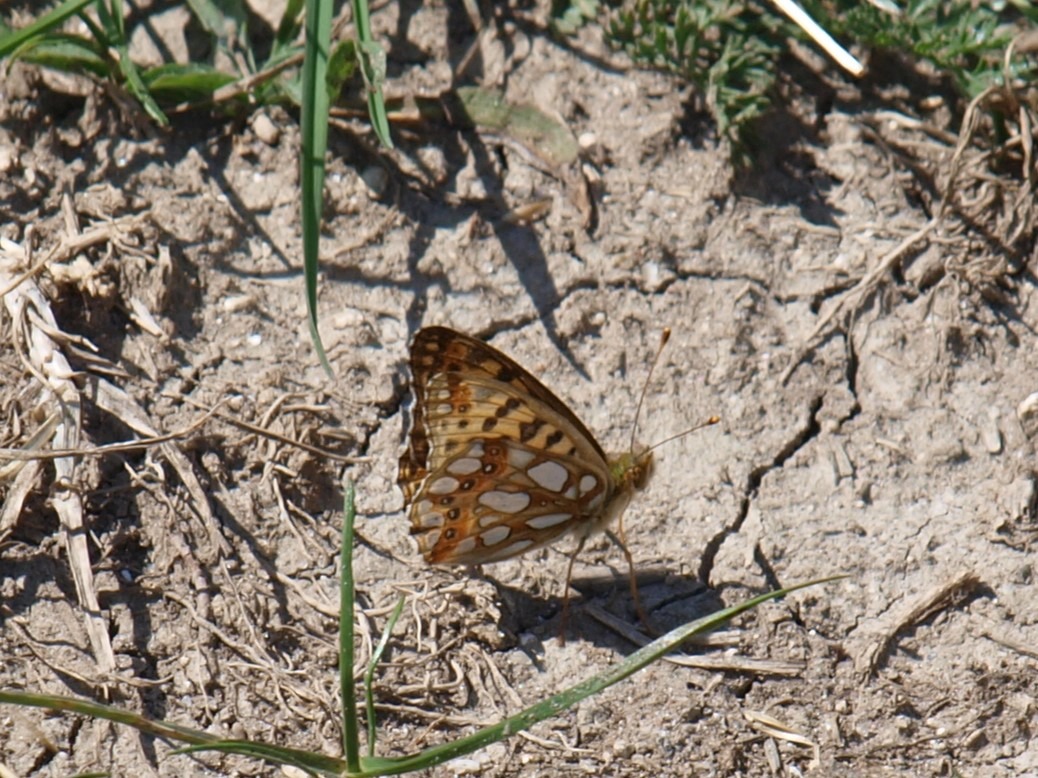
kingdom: Animalia
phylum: Arthropoda
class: Insecta
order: Lepidoptera
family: Nymphalidae
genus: Issoria
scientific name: Issoria lathonia
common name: Storplettet perlemorsommerfugl
